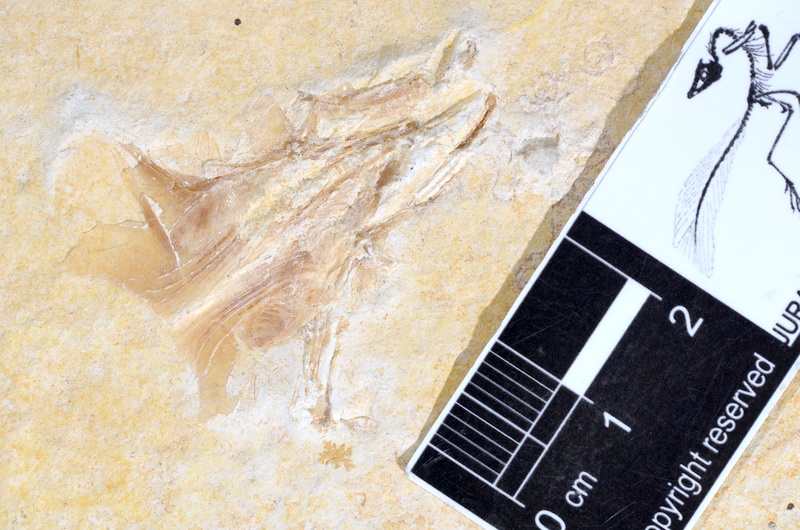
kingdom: Animalia
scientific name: Animalia
